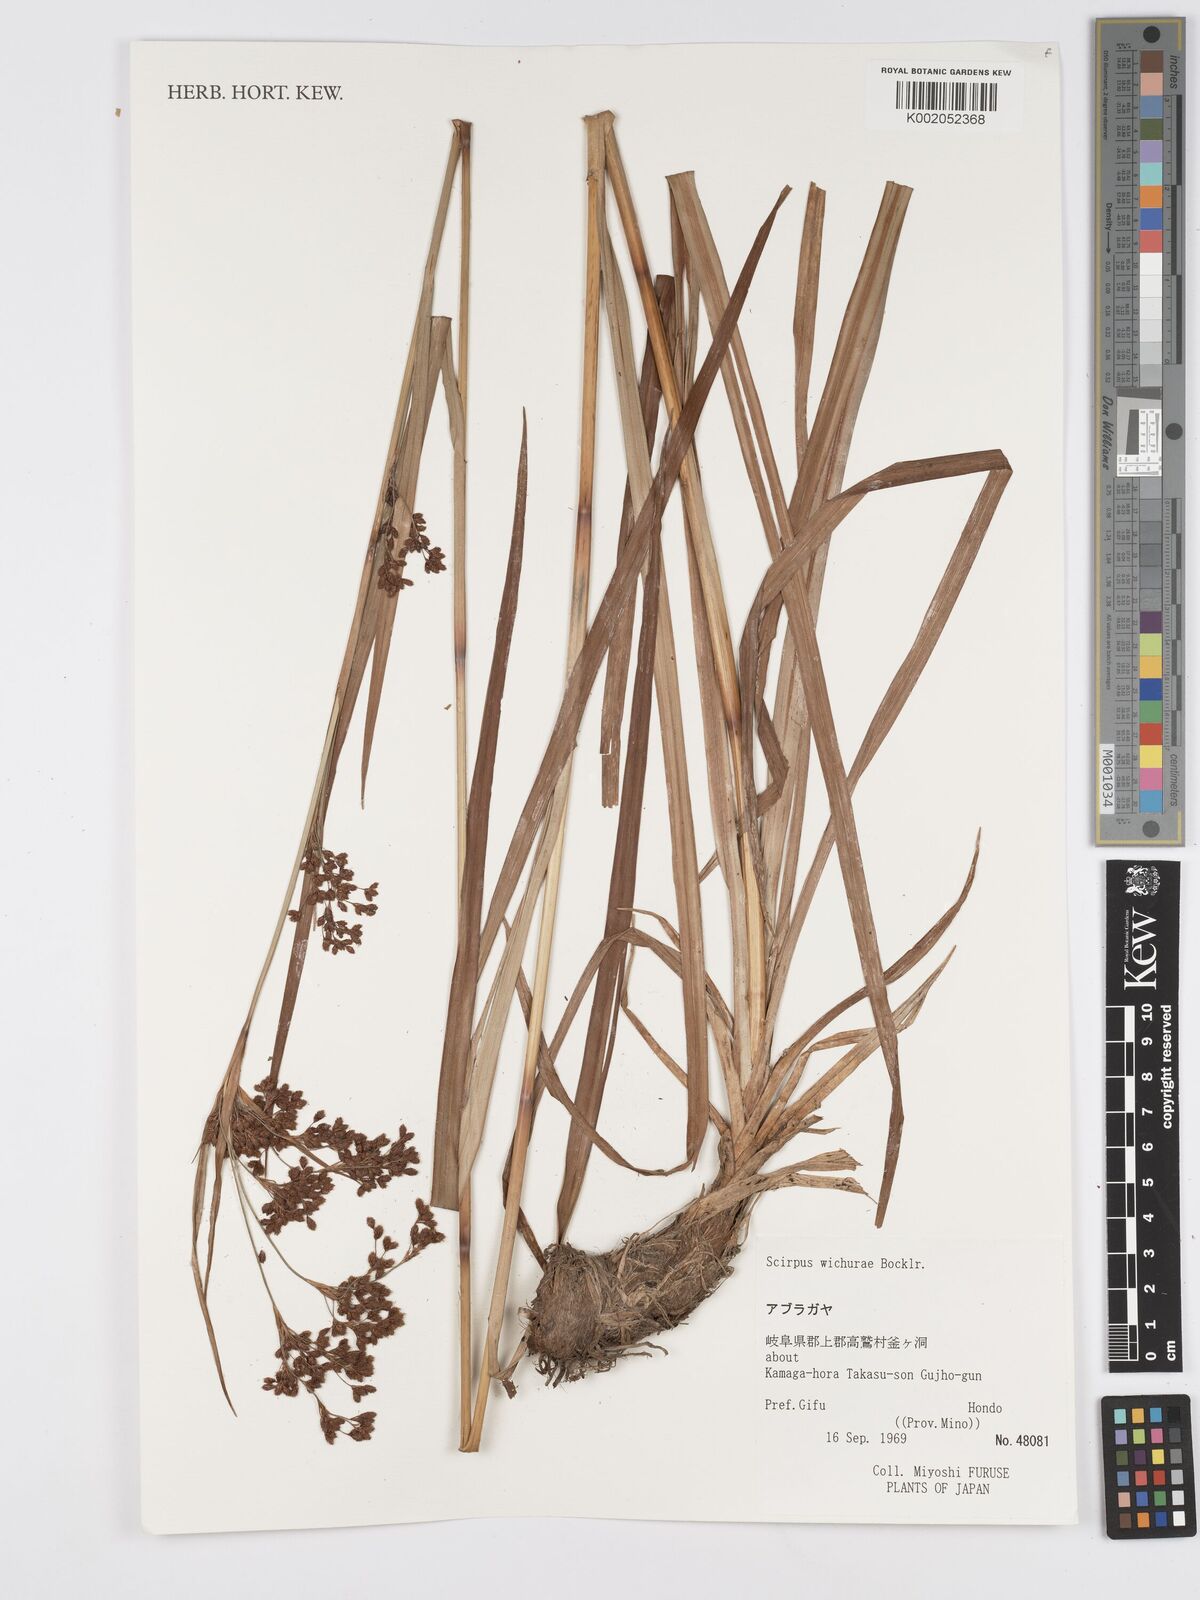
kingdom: Plantae
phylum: Tracheophyta
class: Liliopsida
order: Poales
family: Cyperaceae
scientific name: Cyperaceae
